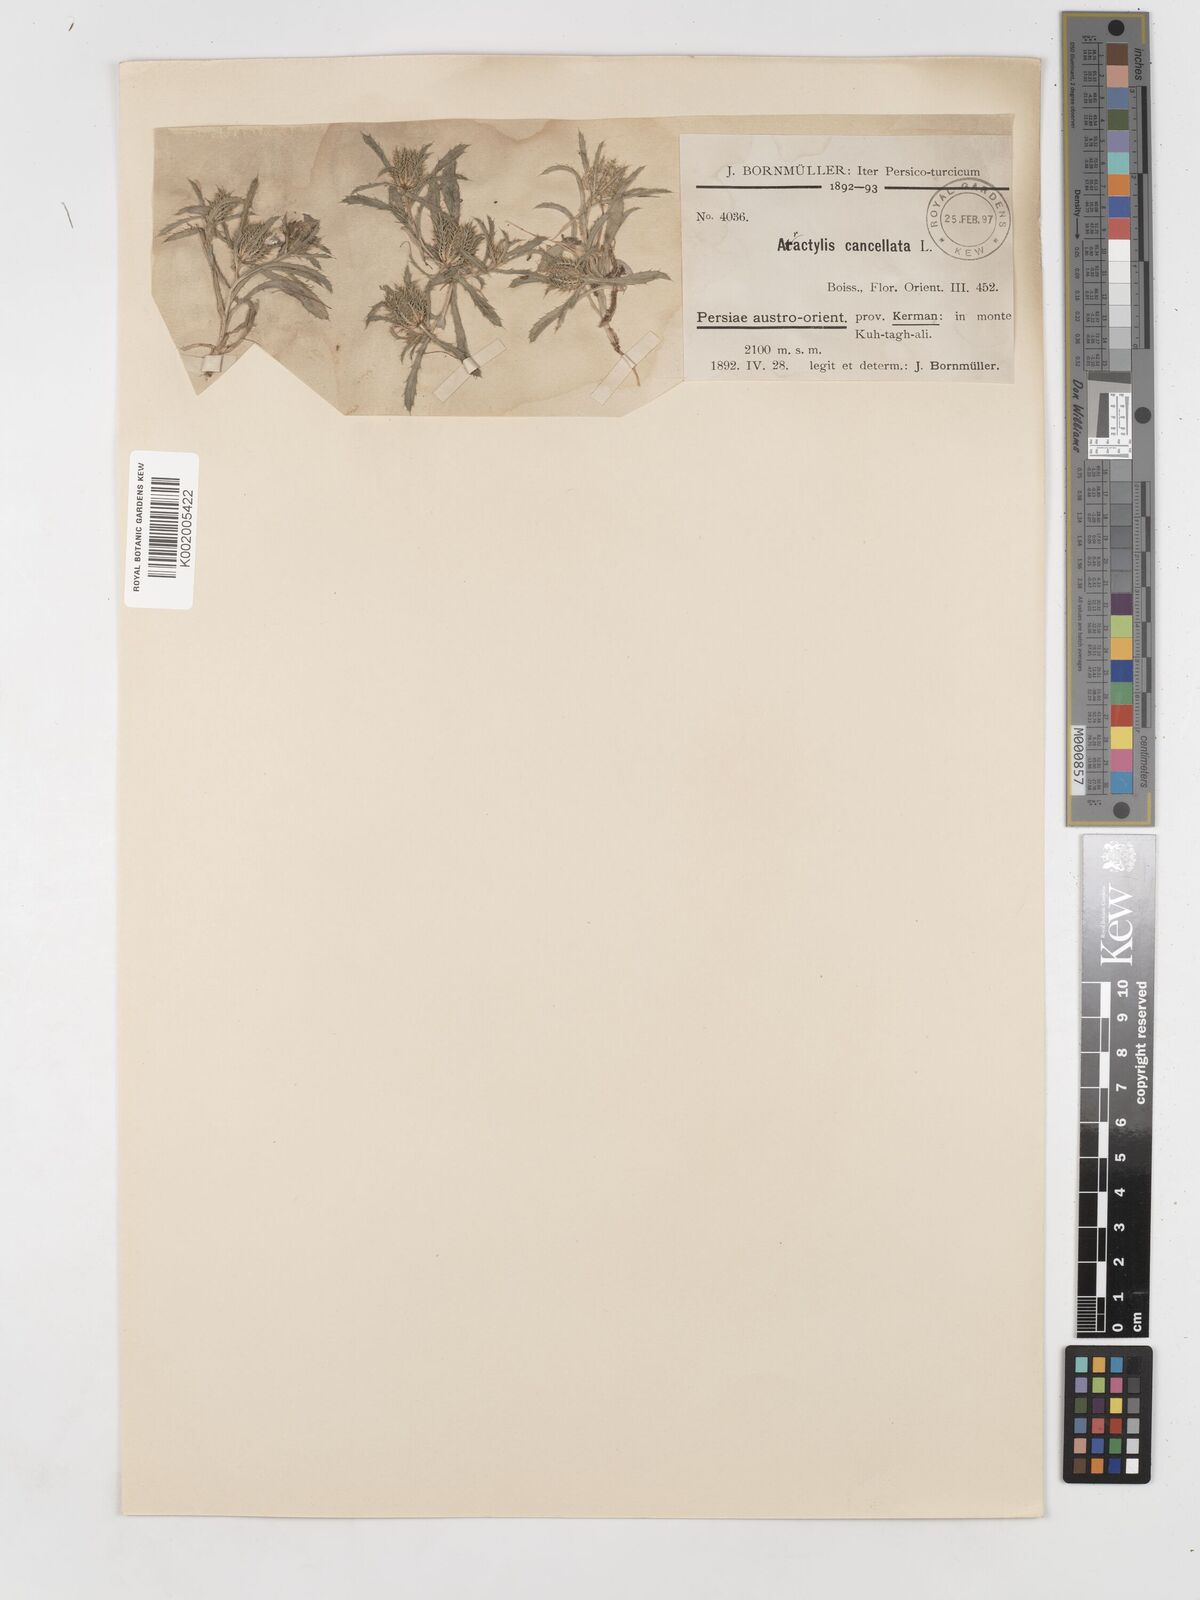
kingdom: Plantae
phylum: Tracheophyta
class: Magnoliopsida
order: Asterales
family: Asteraceae
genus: Atractylis
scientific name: Atractylis cancellata
